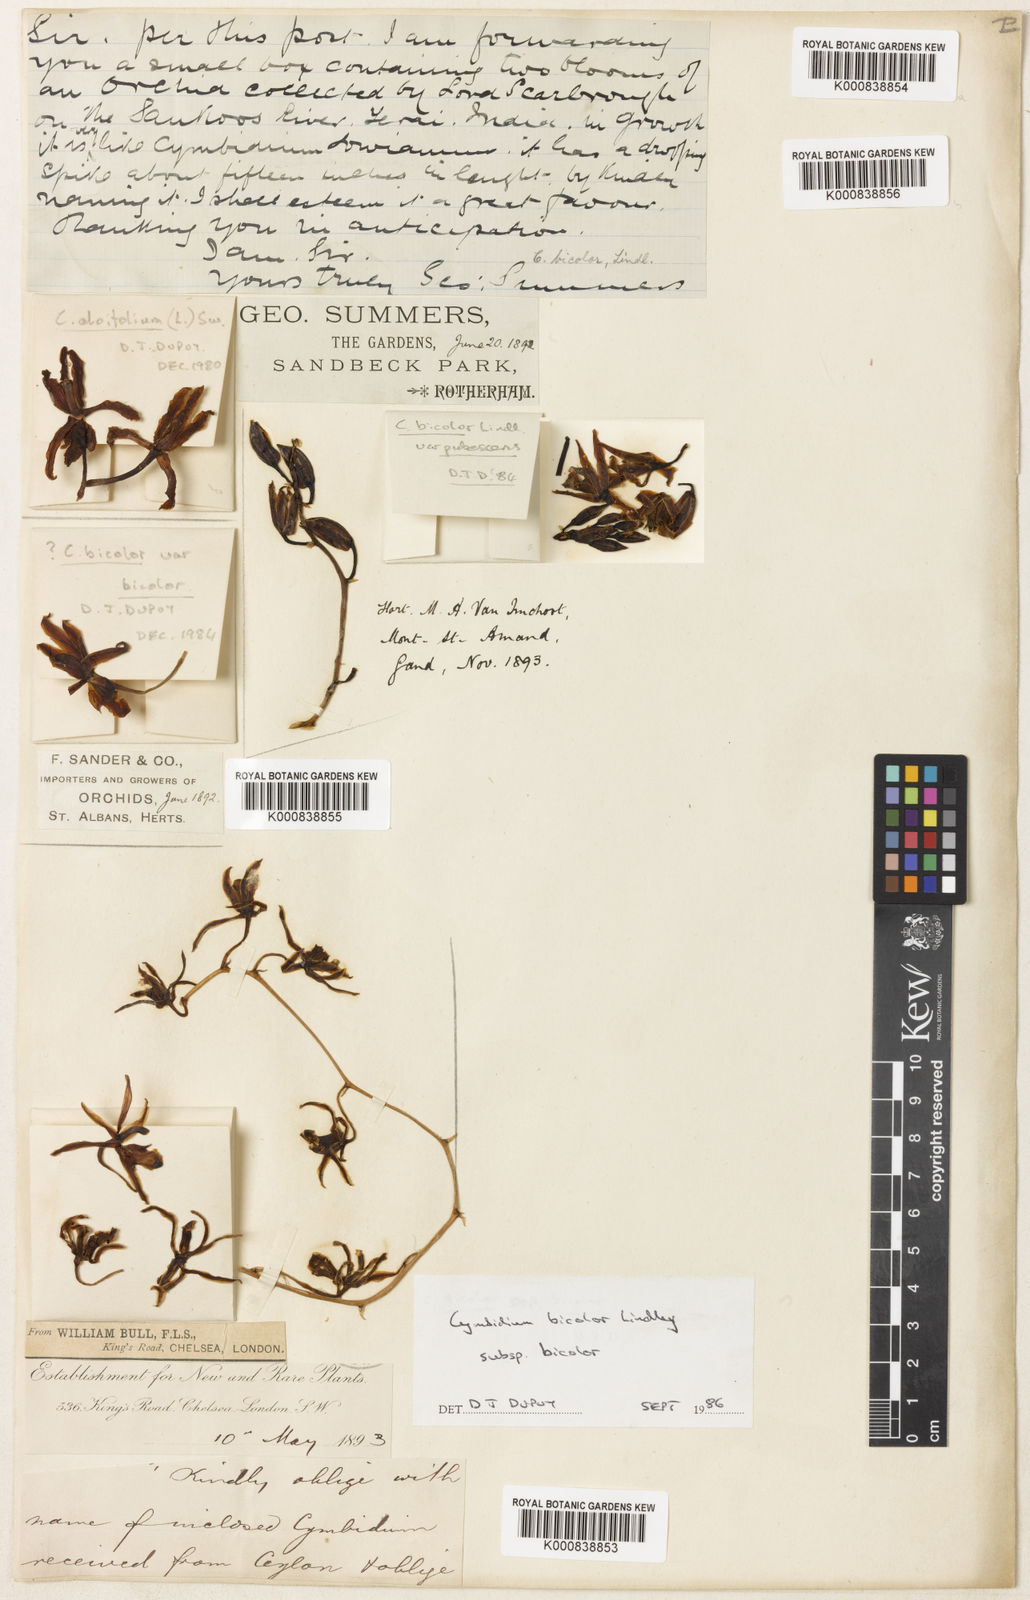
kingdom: Plantae
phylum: Tracheophyta
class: Liliopsida
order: Asparagales
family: Orchidaceae
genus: Cymbidium
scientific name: Cymbidium bicolor
